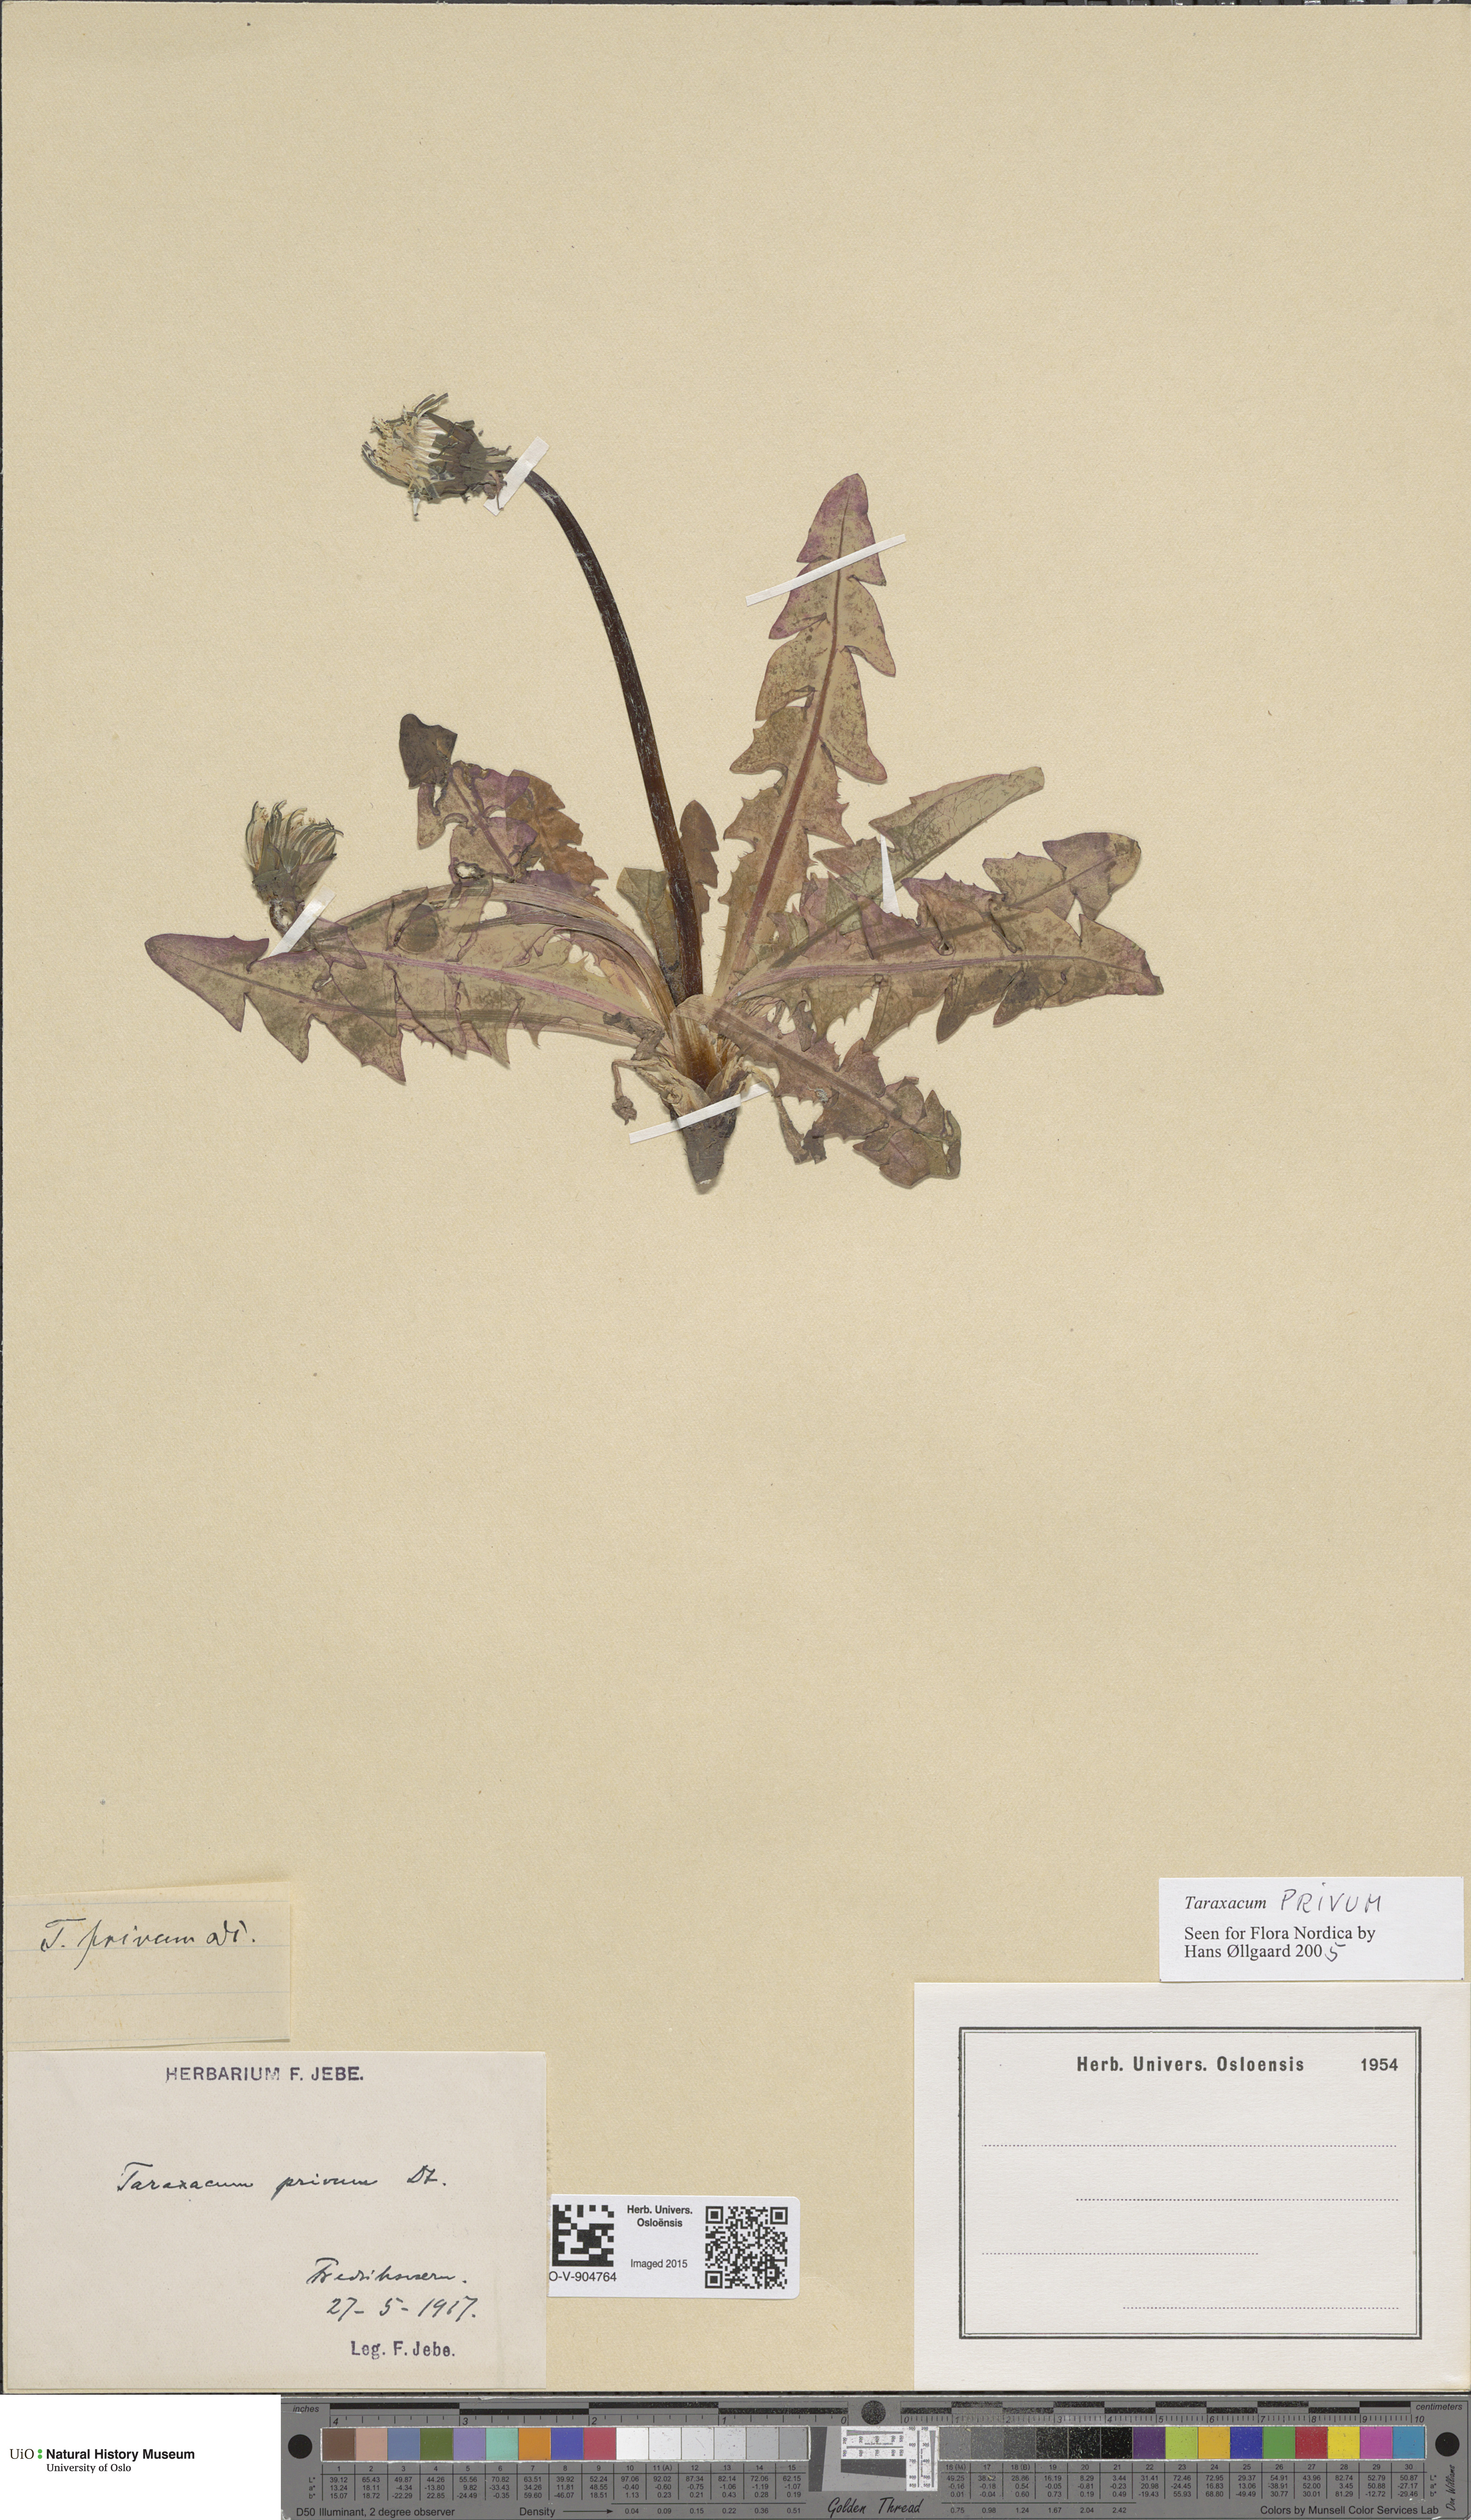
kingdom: Plantae
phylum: Tracheophyta
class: Magnoliopsida
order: Asterales
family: Asteraceae
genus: Taraxacum
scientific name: Taraxacum privum
